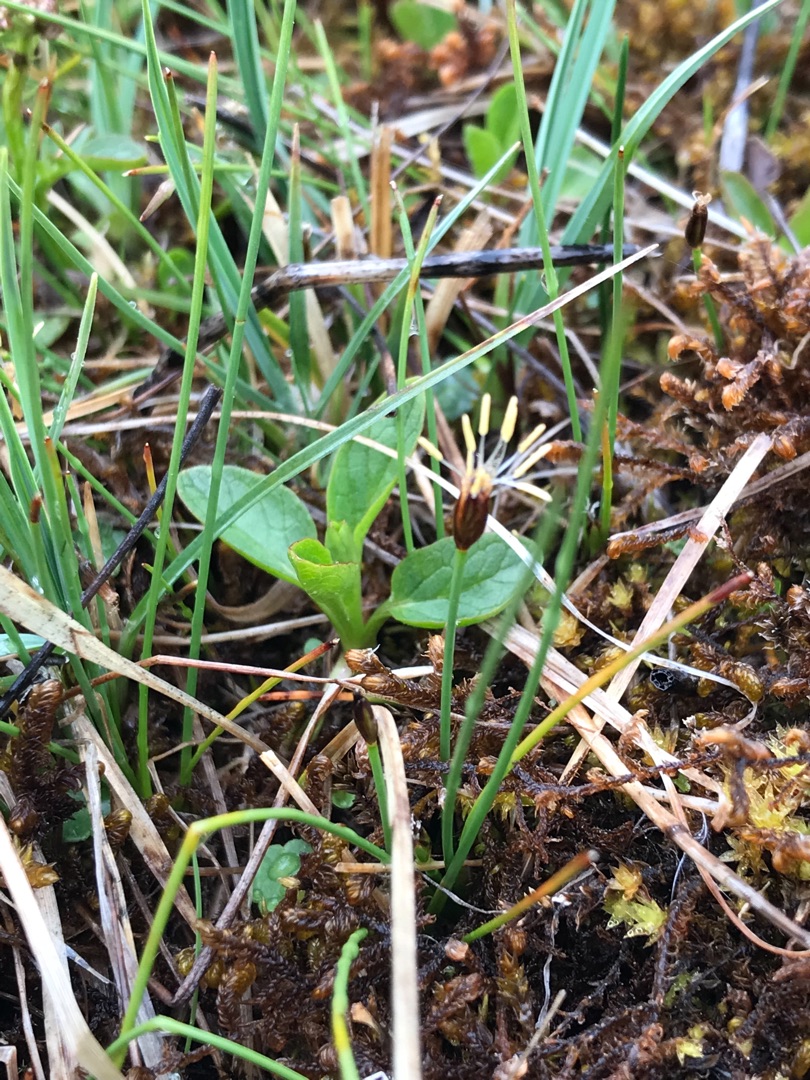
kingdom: Plantae
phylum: Tracheophyta
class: Liliopsida
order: Poales
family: Cyperaceae
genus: Eleocharis
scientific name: Eleocharis quinqueflora
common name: Fåblomstret kogleaks
